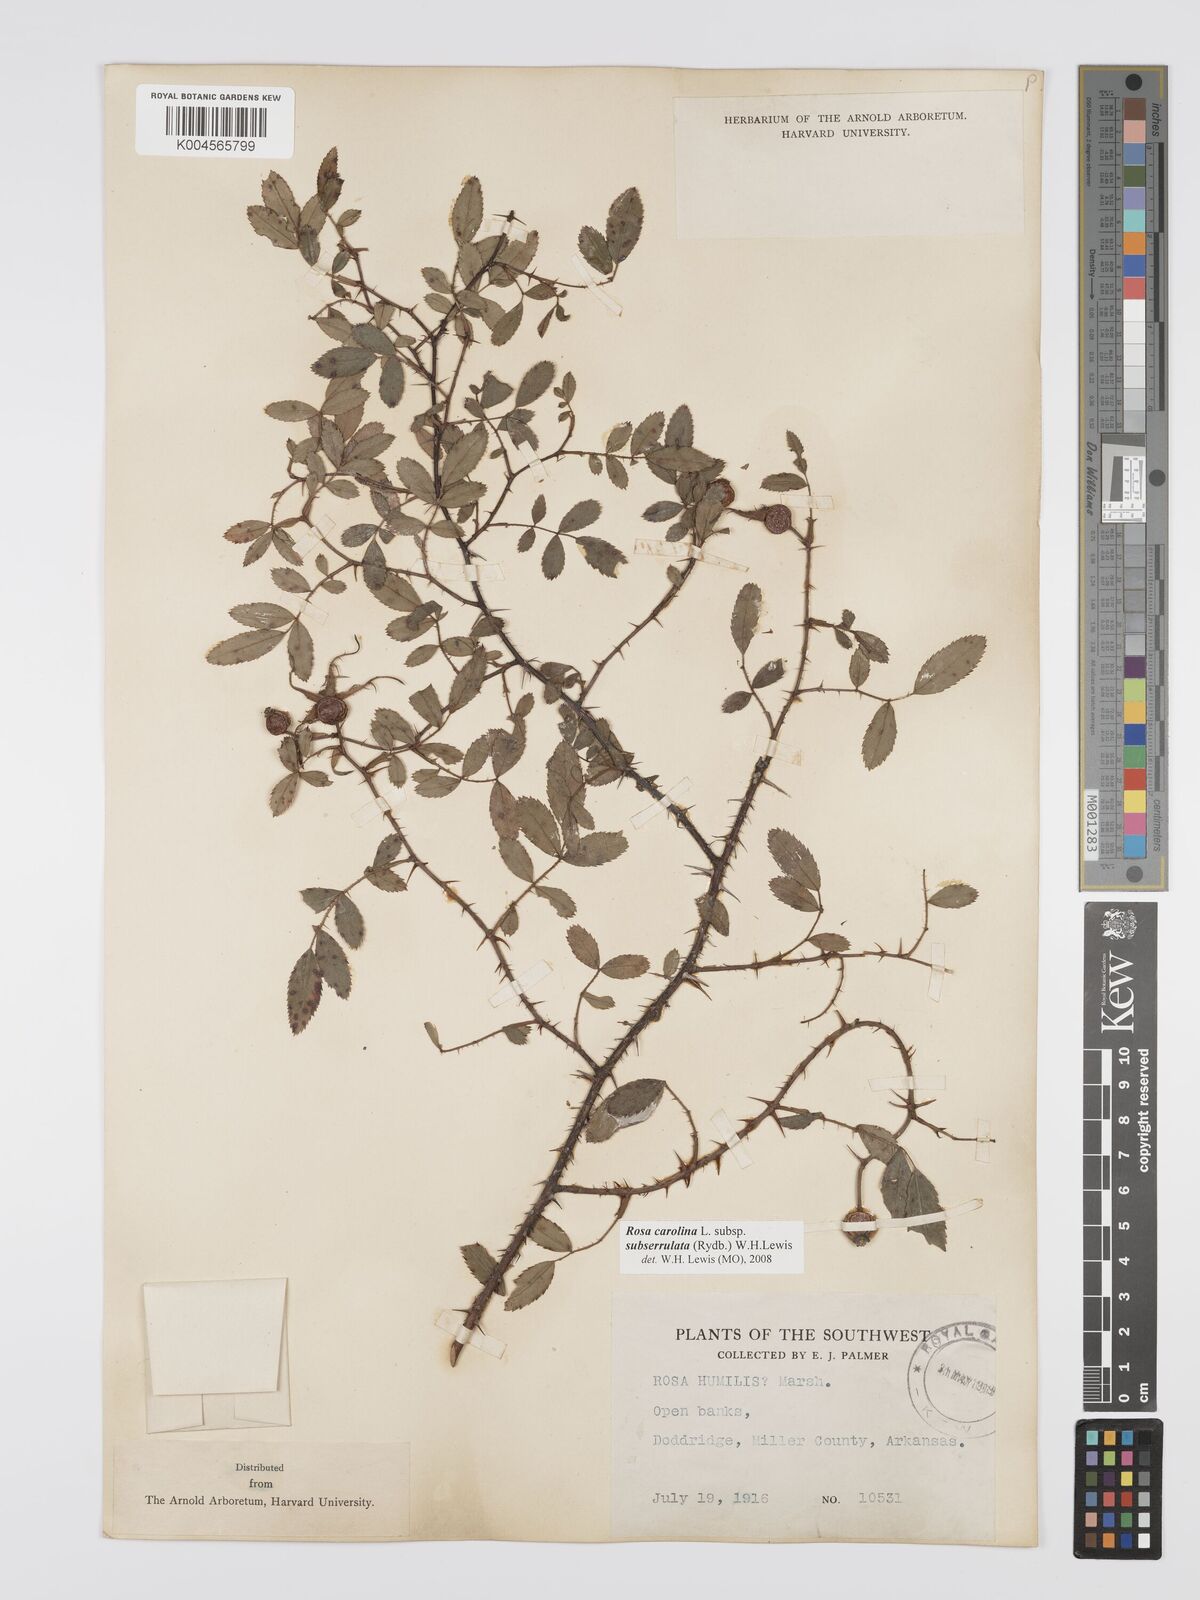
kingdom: Plantae
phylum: Tracheophyta
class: Magnoliopsida
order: Rosales
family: Rosaceae
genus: Rosa
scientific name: Rosa carolina
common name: Pasture rose
